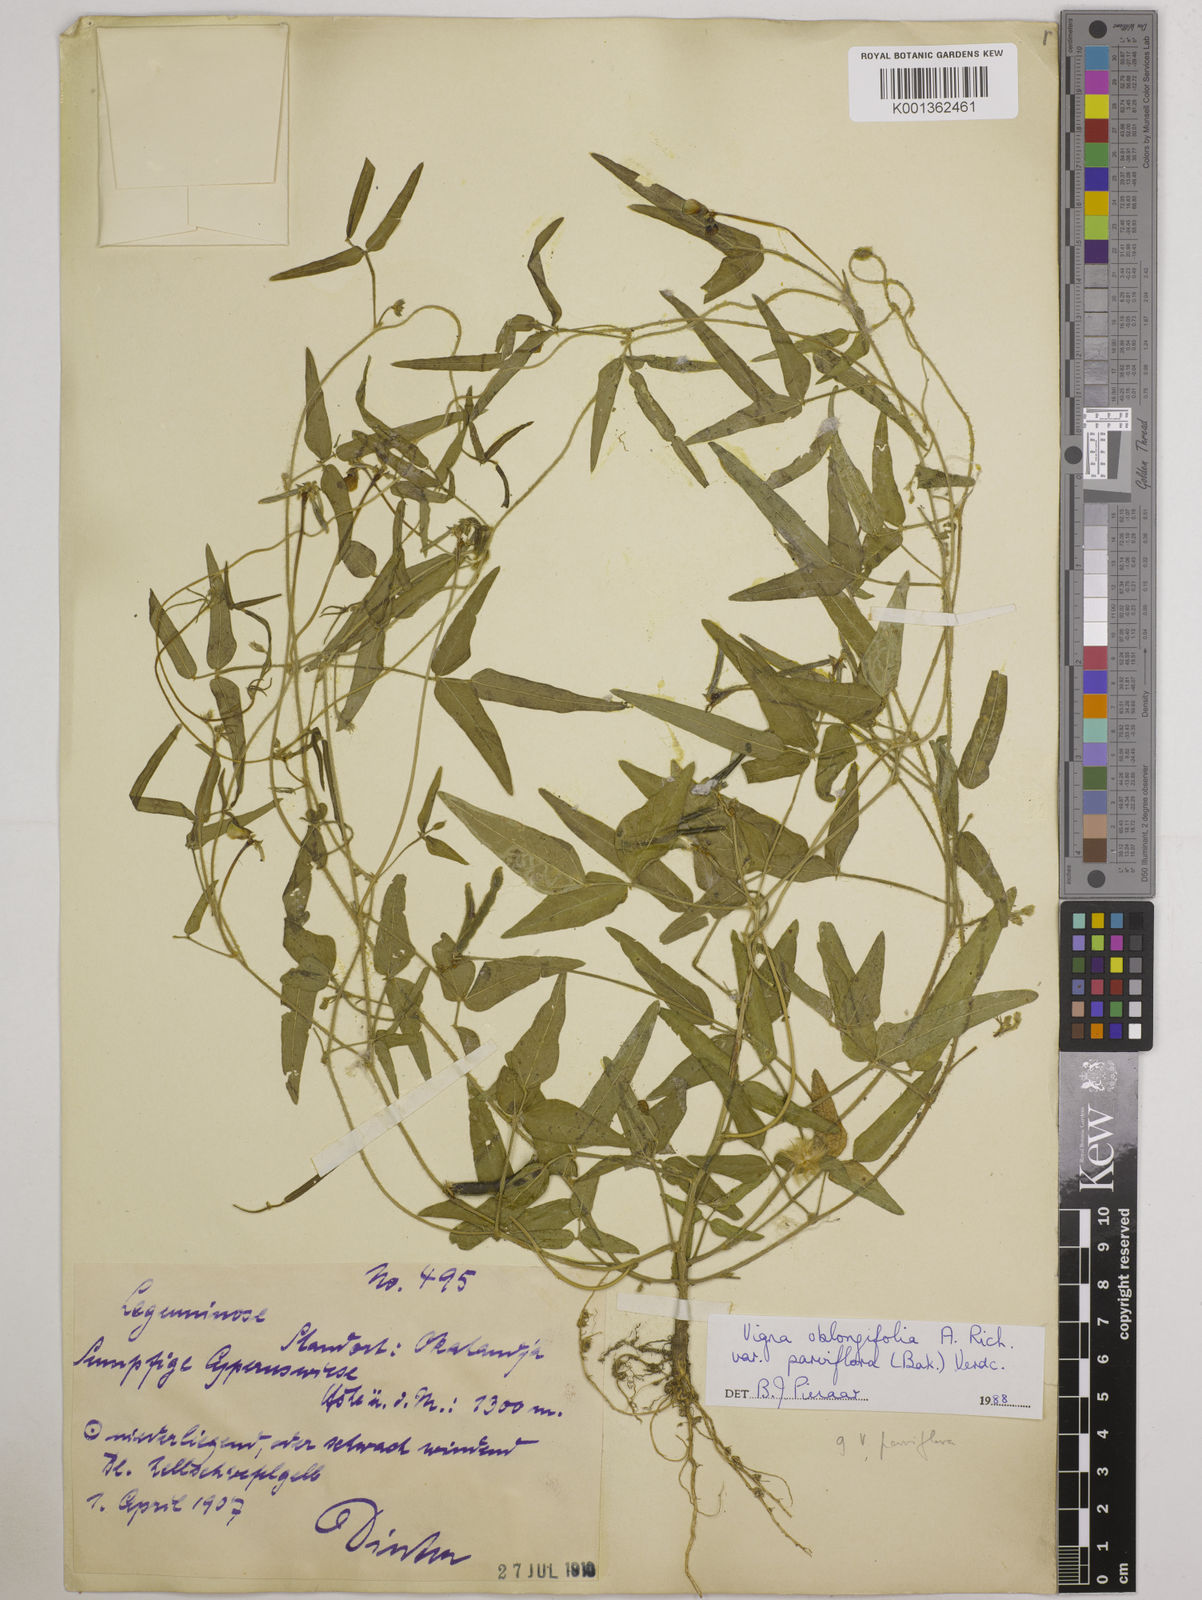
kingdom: Plantae
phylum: Tracheophyta
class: Magnoliopsida
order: Fabales
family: Fabaceae
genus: Vigna
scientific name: Vigna
